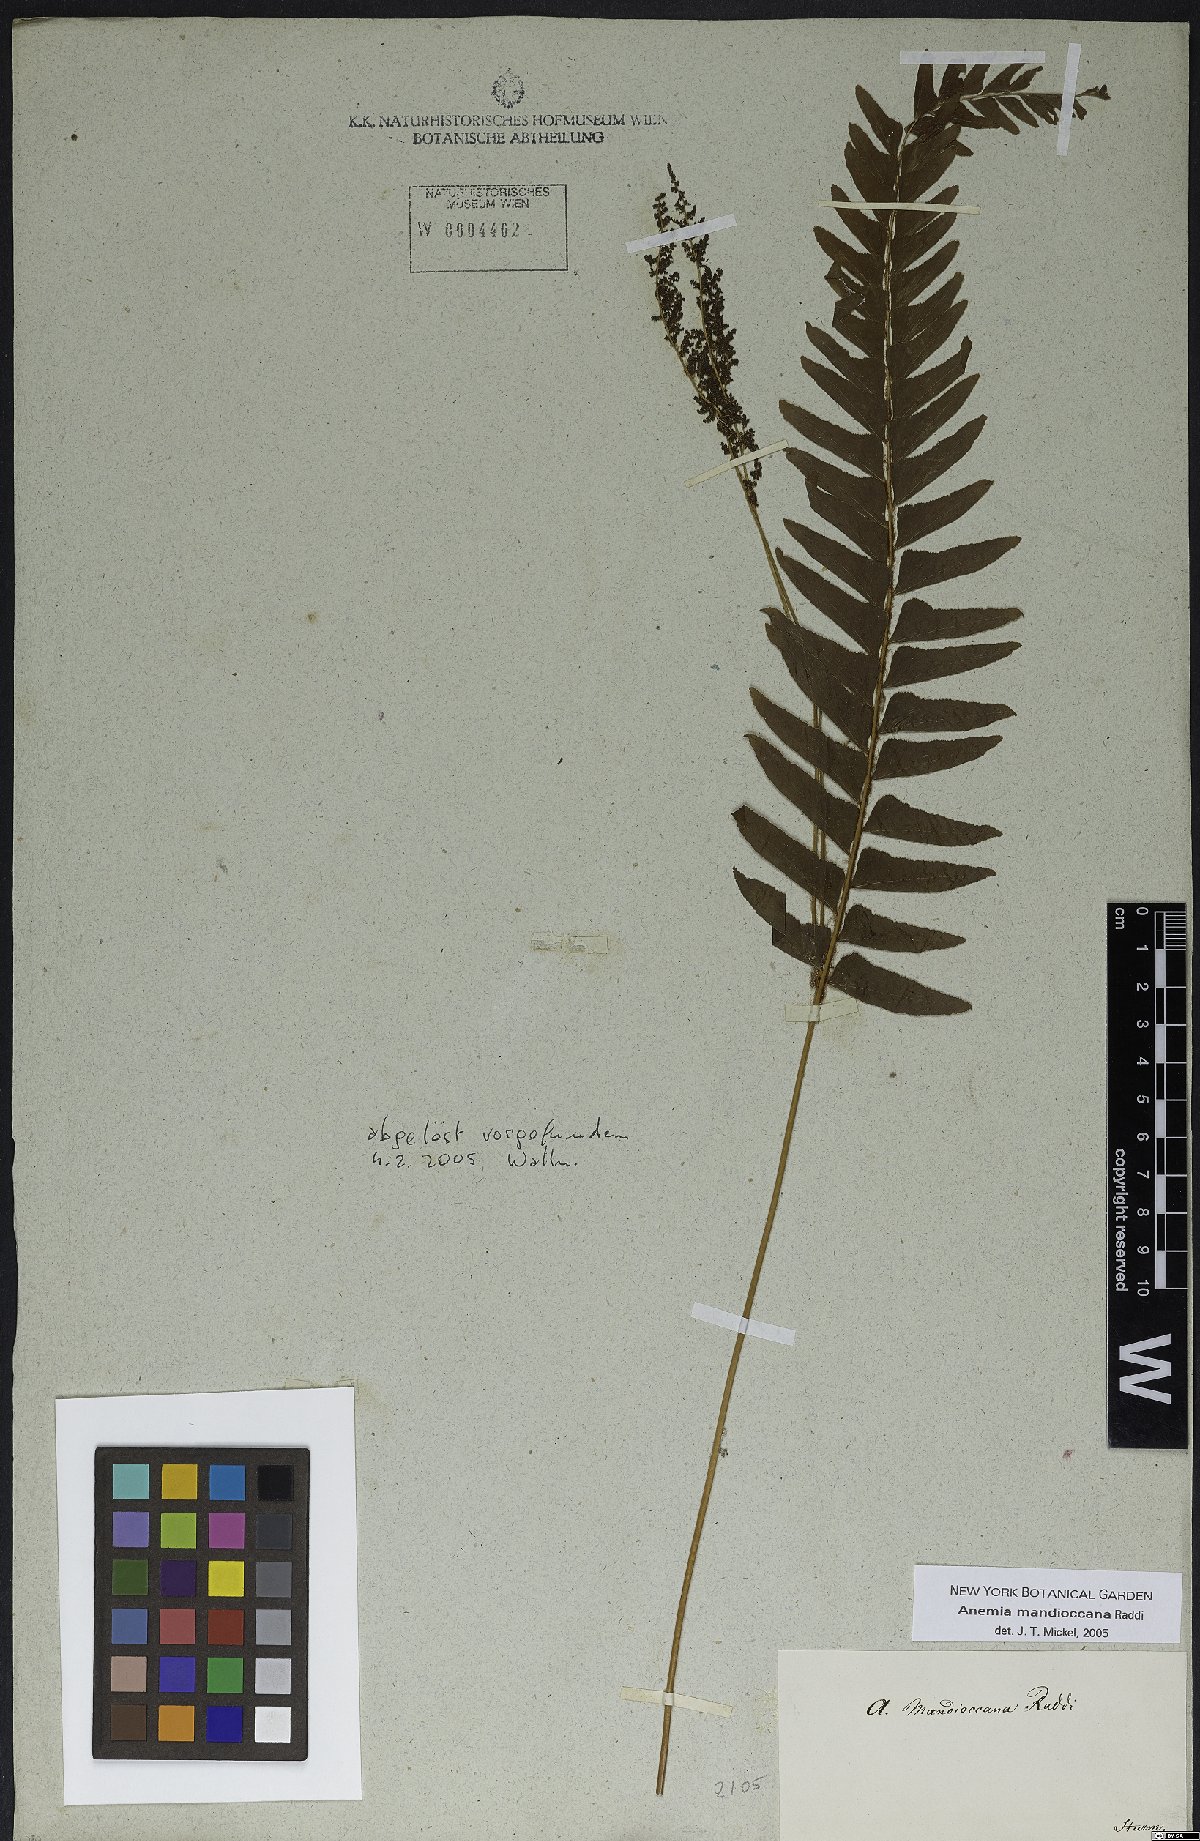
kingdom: Plantae
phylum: Tracheophyta
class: Polypodiopsida
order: Schizaeales
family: Anemiaceae
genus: Anemia
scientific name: Anemia mandiocana
